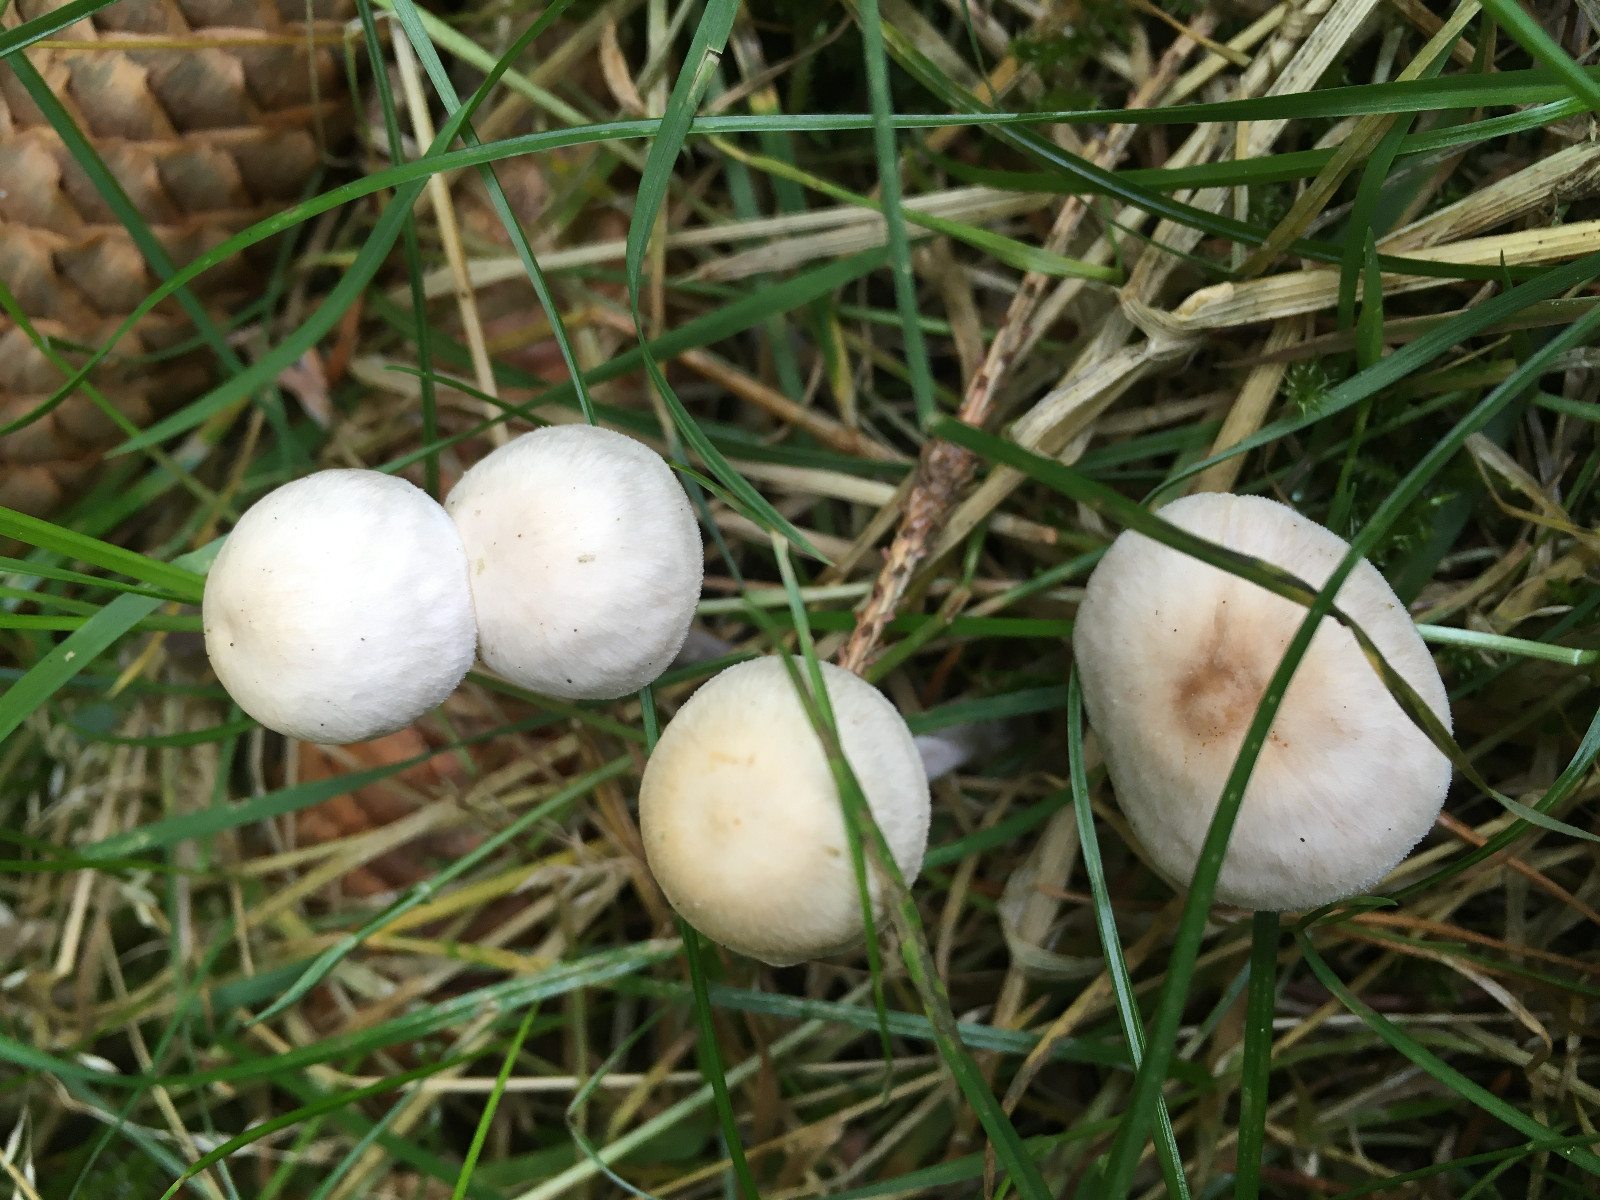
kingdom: Fungi
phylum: Basidiomycota
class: Agaricomycetes
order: Agaricales
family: Omphalotaceae
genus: Collybiopsis
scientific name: Collybiopsis confluens
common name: knippe-fladhat
